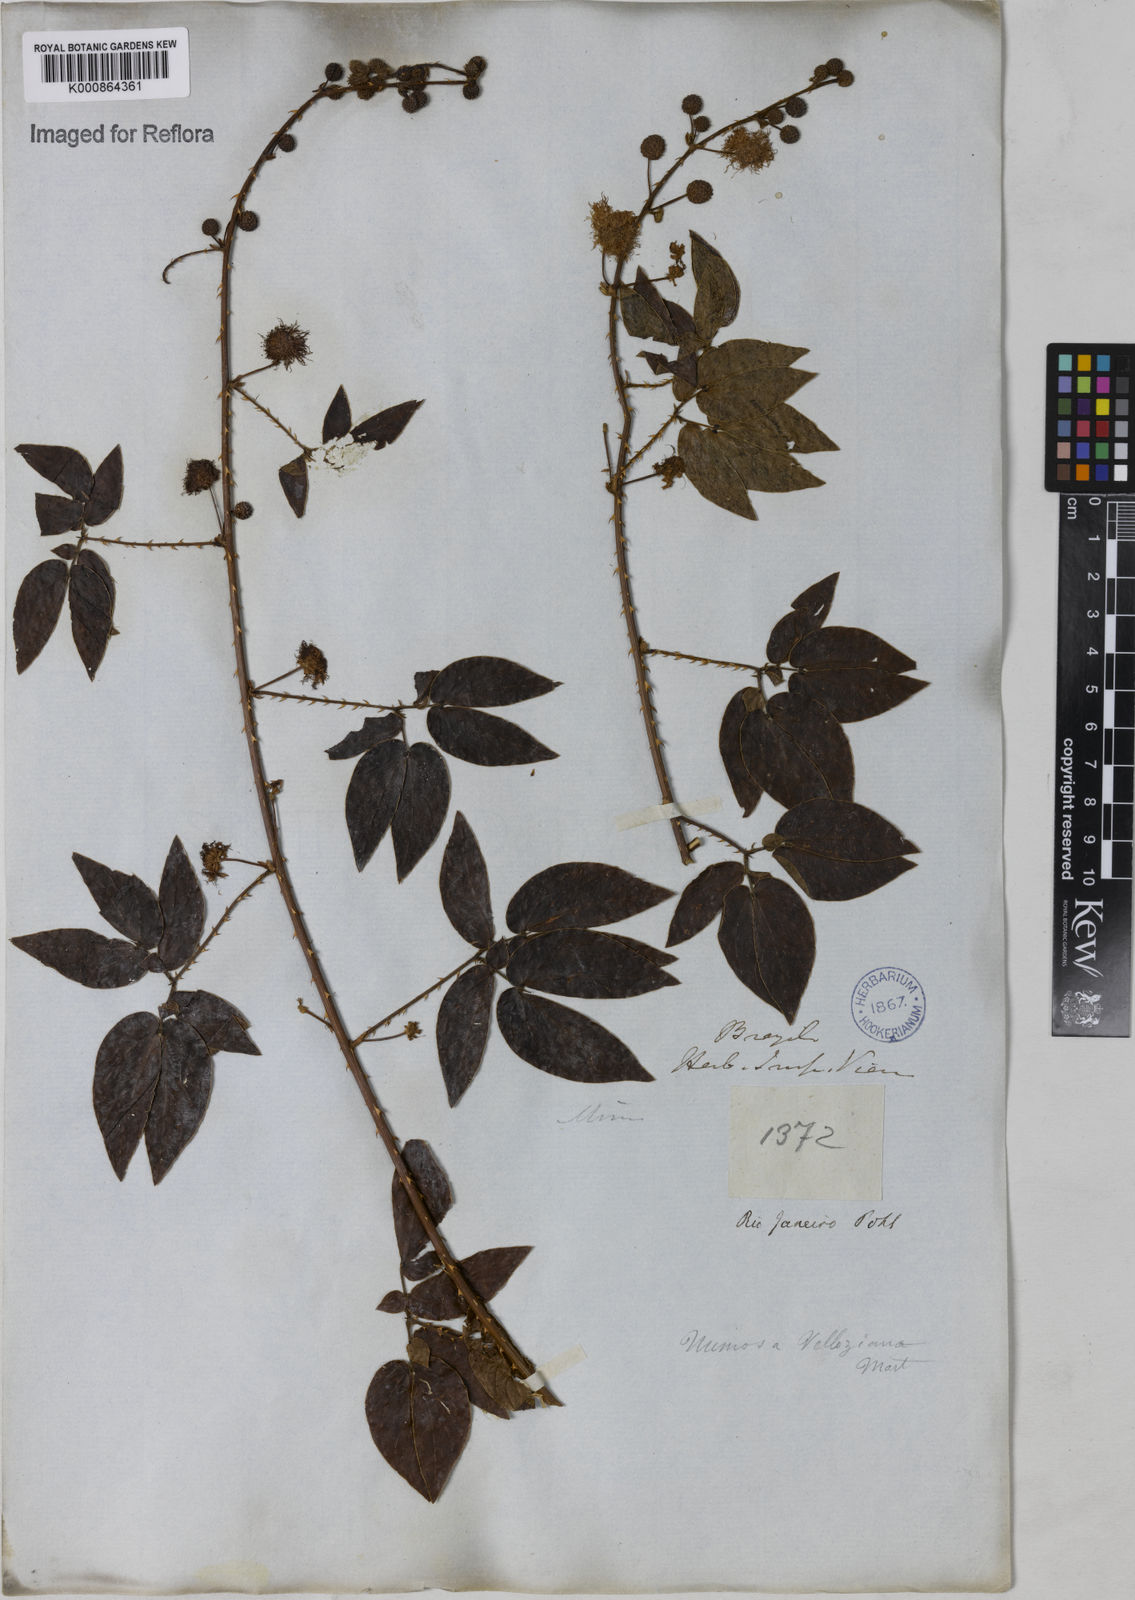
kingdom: Plantae
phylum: Tracheophyta
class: Magnoliopsida
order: Fabales
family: Fabaceae
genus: Mimosa
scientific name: Mimosa velloziana
